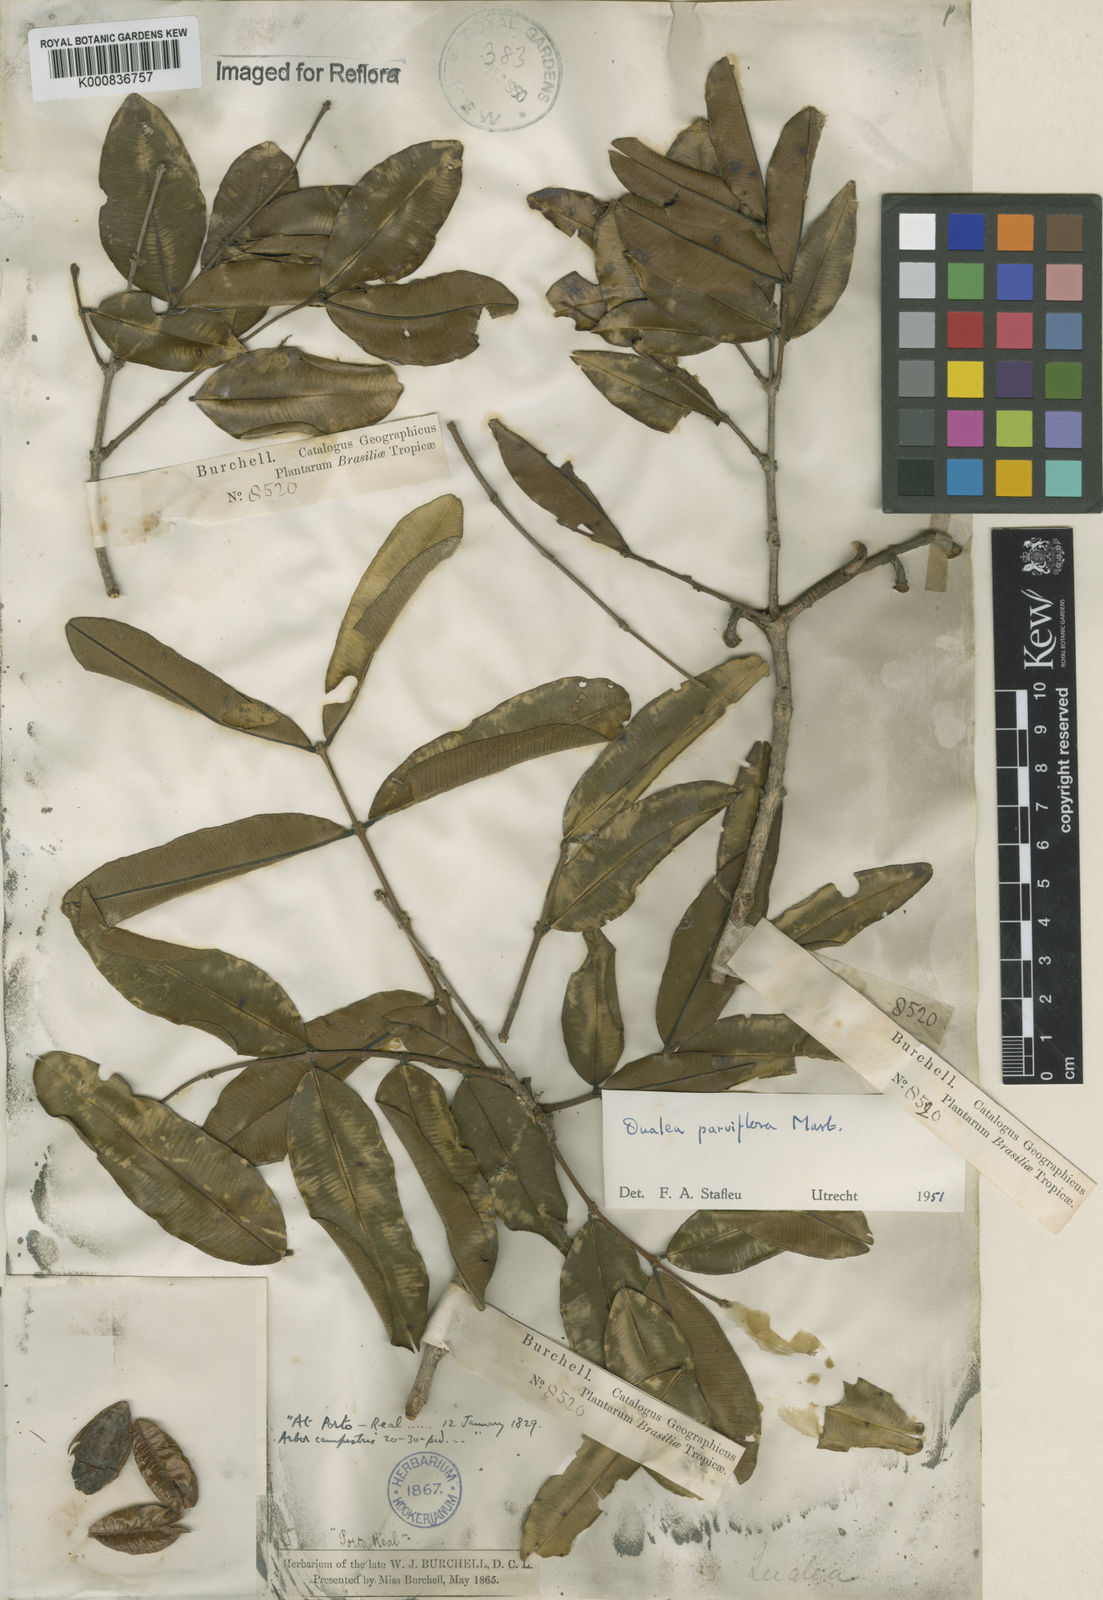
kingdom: Plantae
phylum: Tracheophyta
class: Magnoliopsida
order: Myrtales
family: Vochysiaceae
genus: Qualea
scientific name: Qualea parviflora
